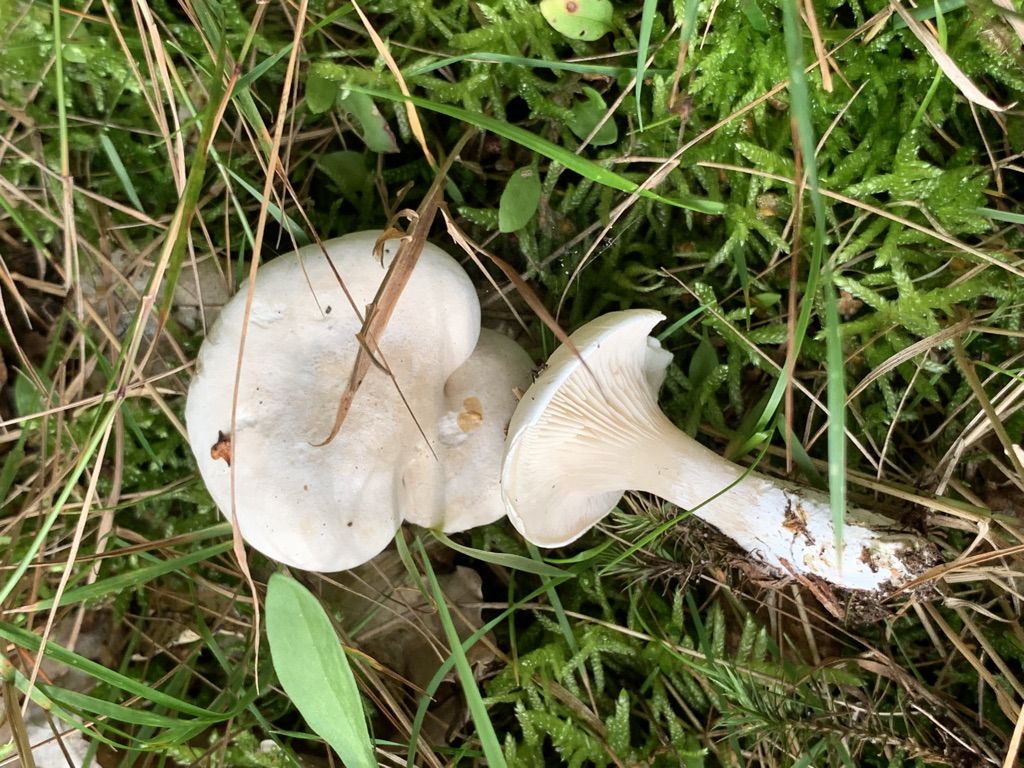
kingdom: Fungi
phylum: Basidiomycota
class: Agaricomycetes
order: Agaricales
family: Entolomataceae
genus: Clitopilus
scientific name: Clitopilus prunulus
